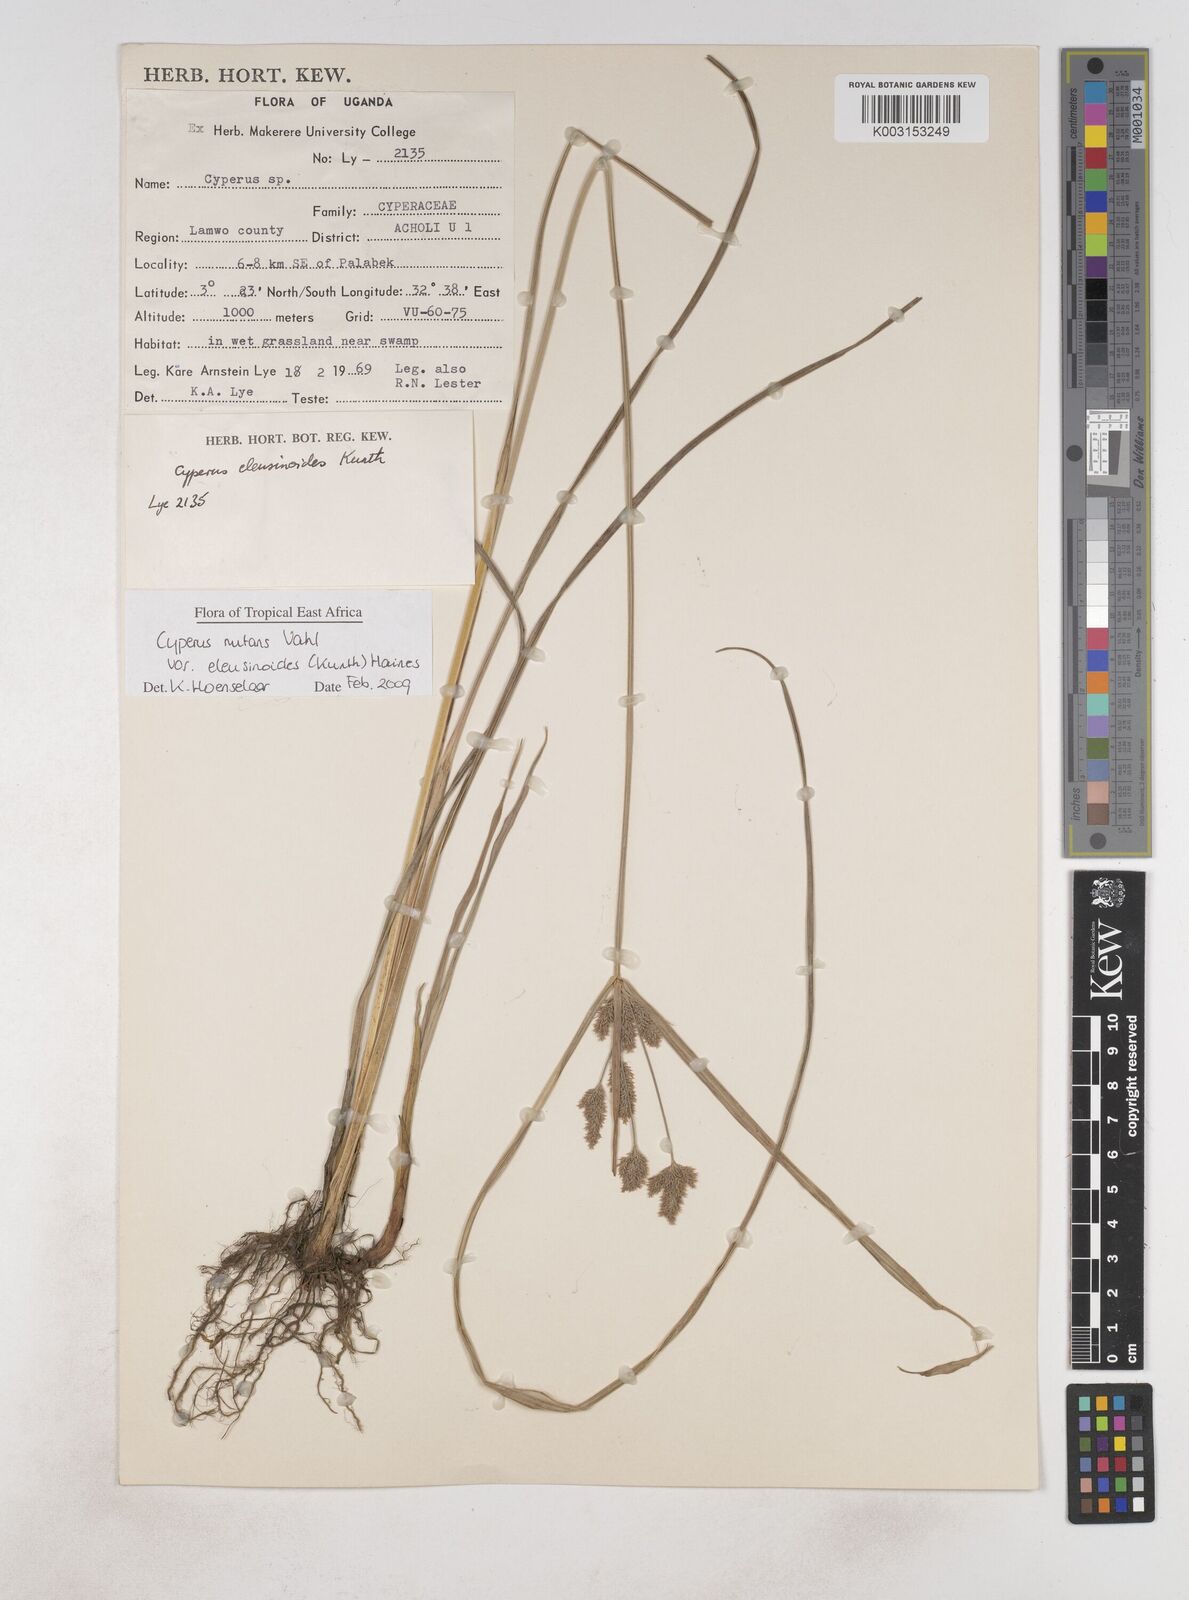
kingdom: Plantae
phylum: Tracheophyta
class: Liliopsida
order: Poales
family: Cyperaceae
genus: Cyperus
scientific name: Cyperus nutans
